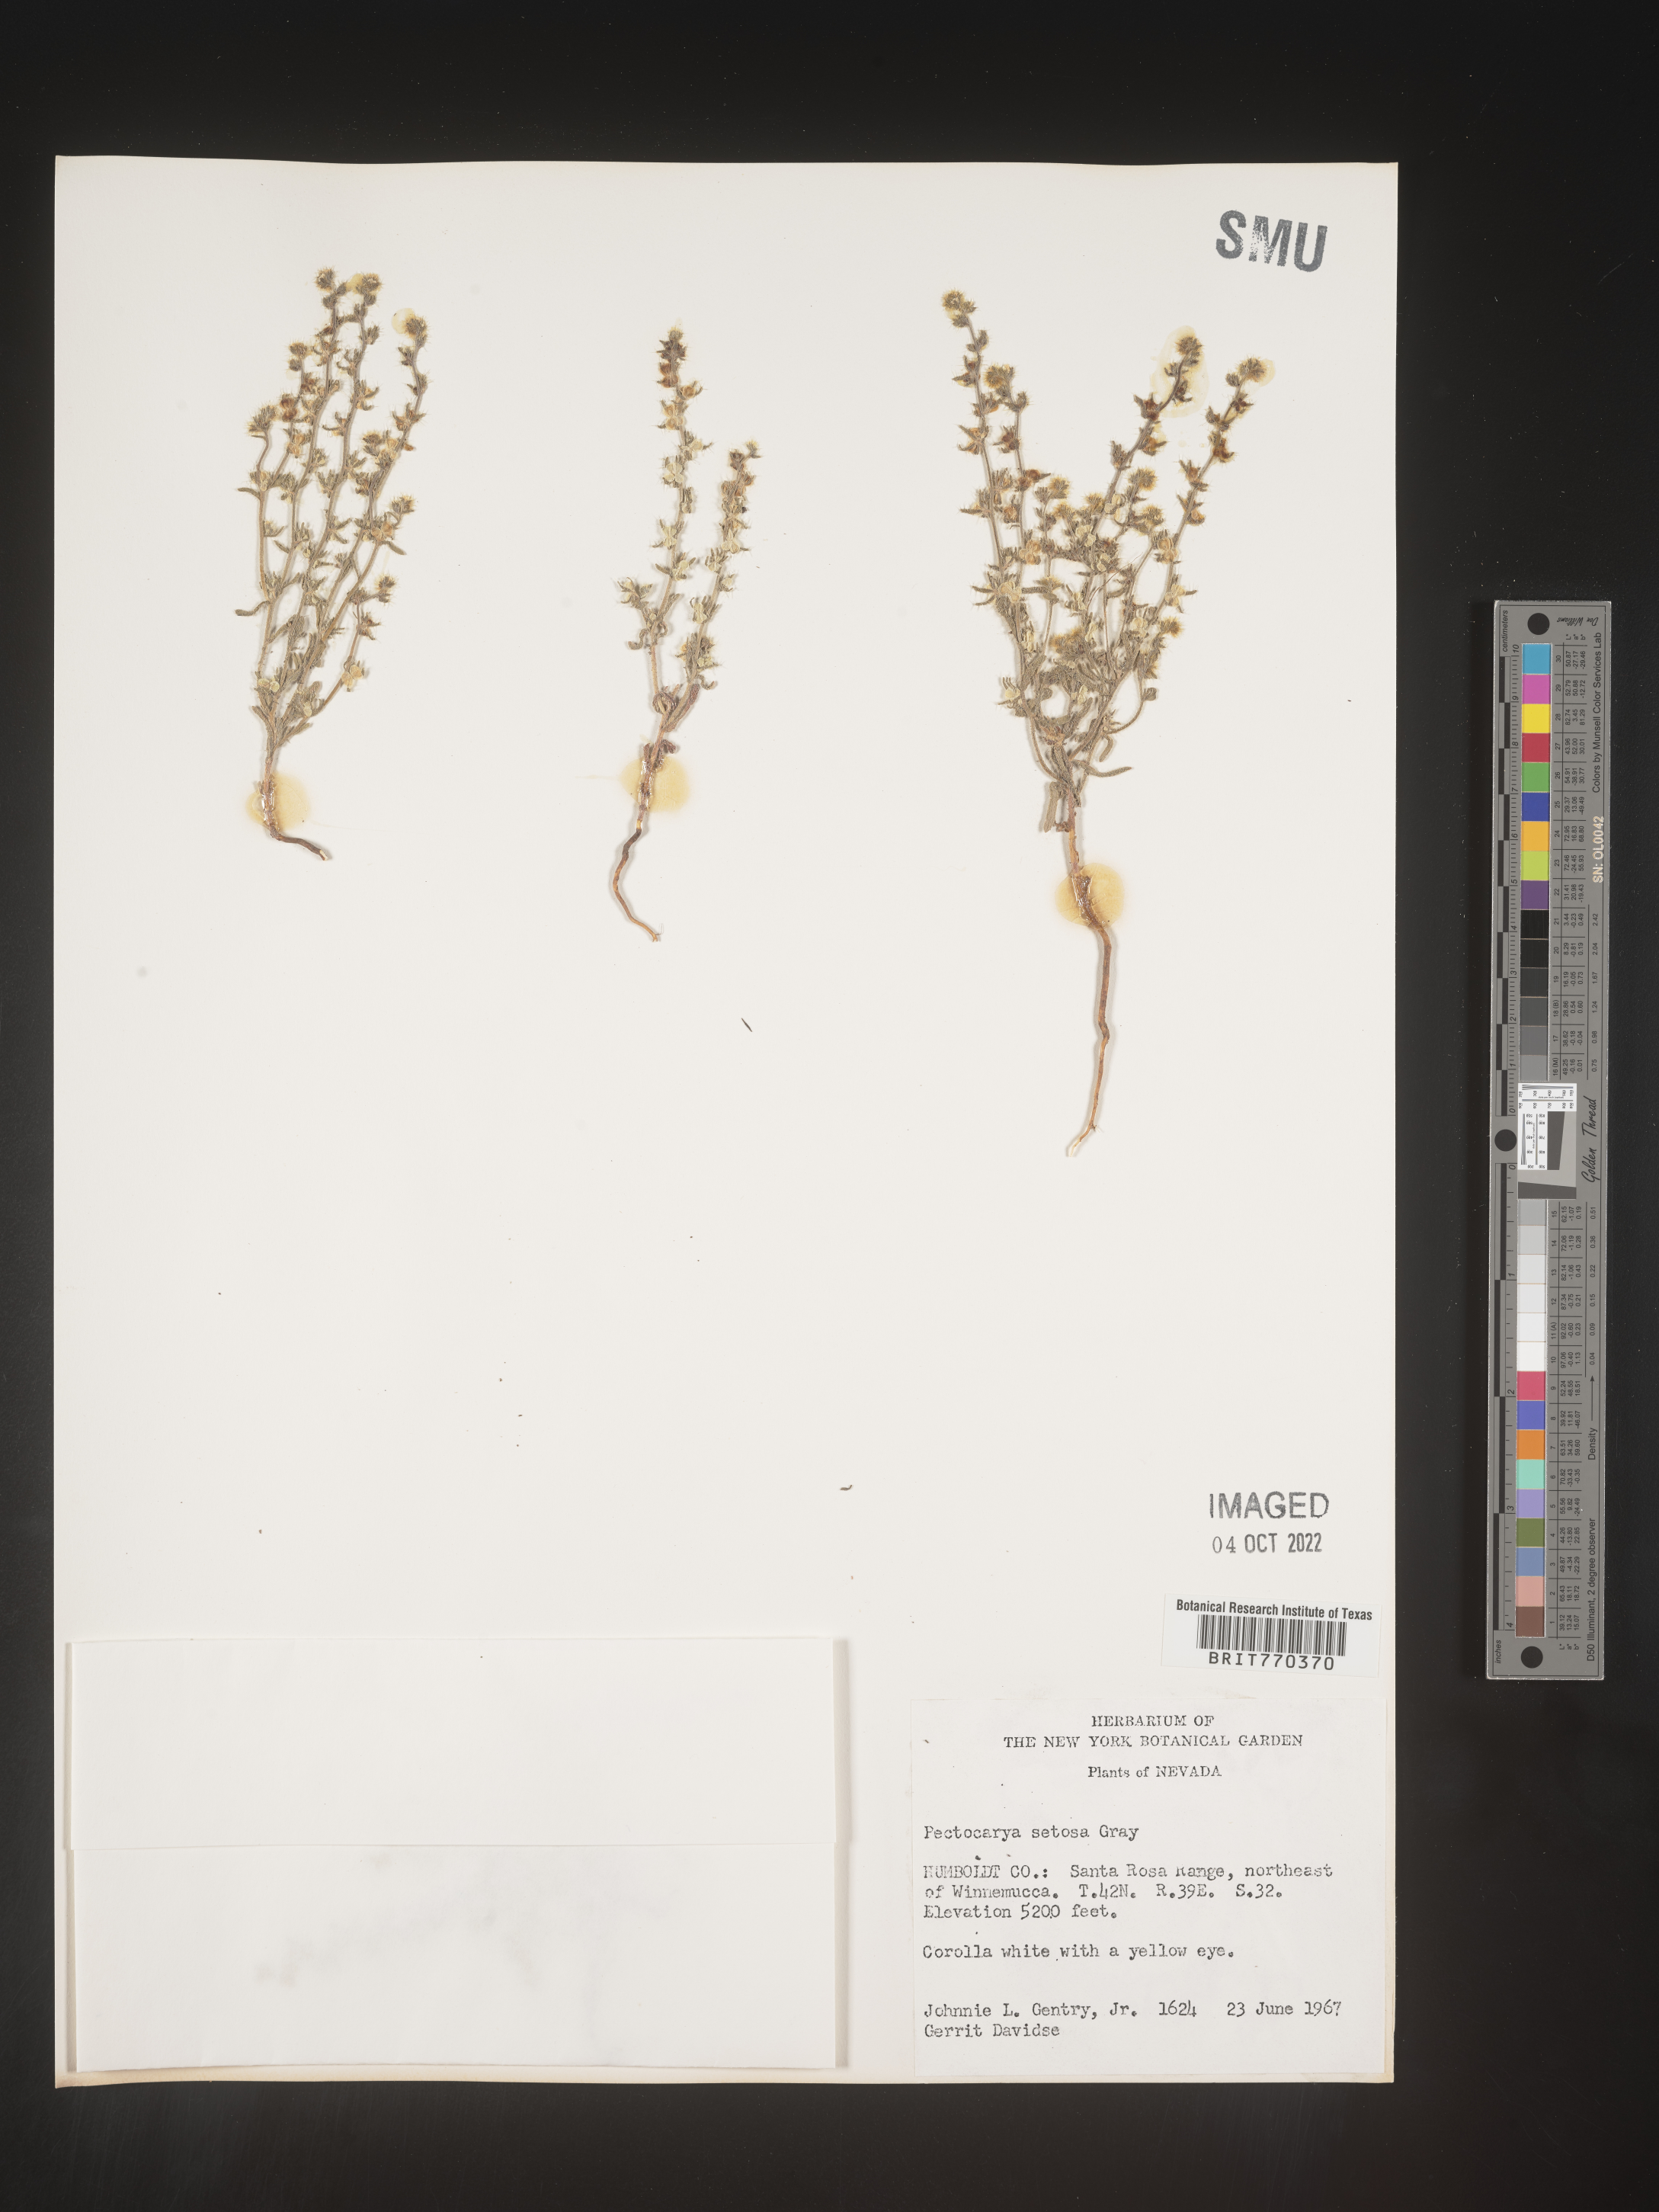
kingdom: Plantae
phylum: Tracheophyta
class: Magnoliopsida
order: Boraginales
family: Boraginaceae
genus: Pectocarya
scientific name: Pectocarya
